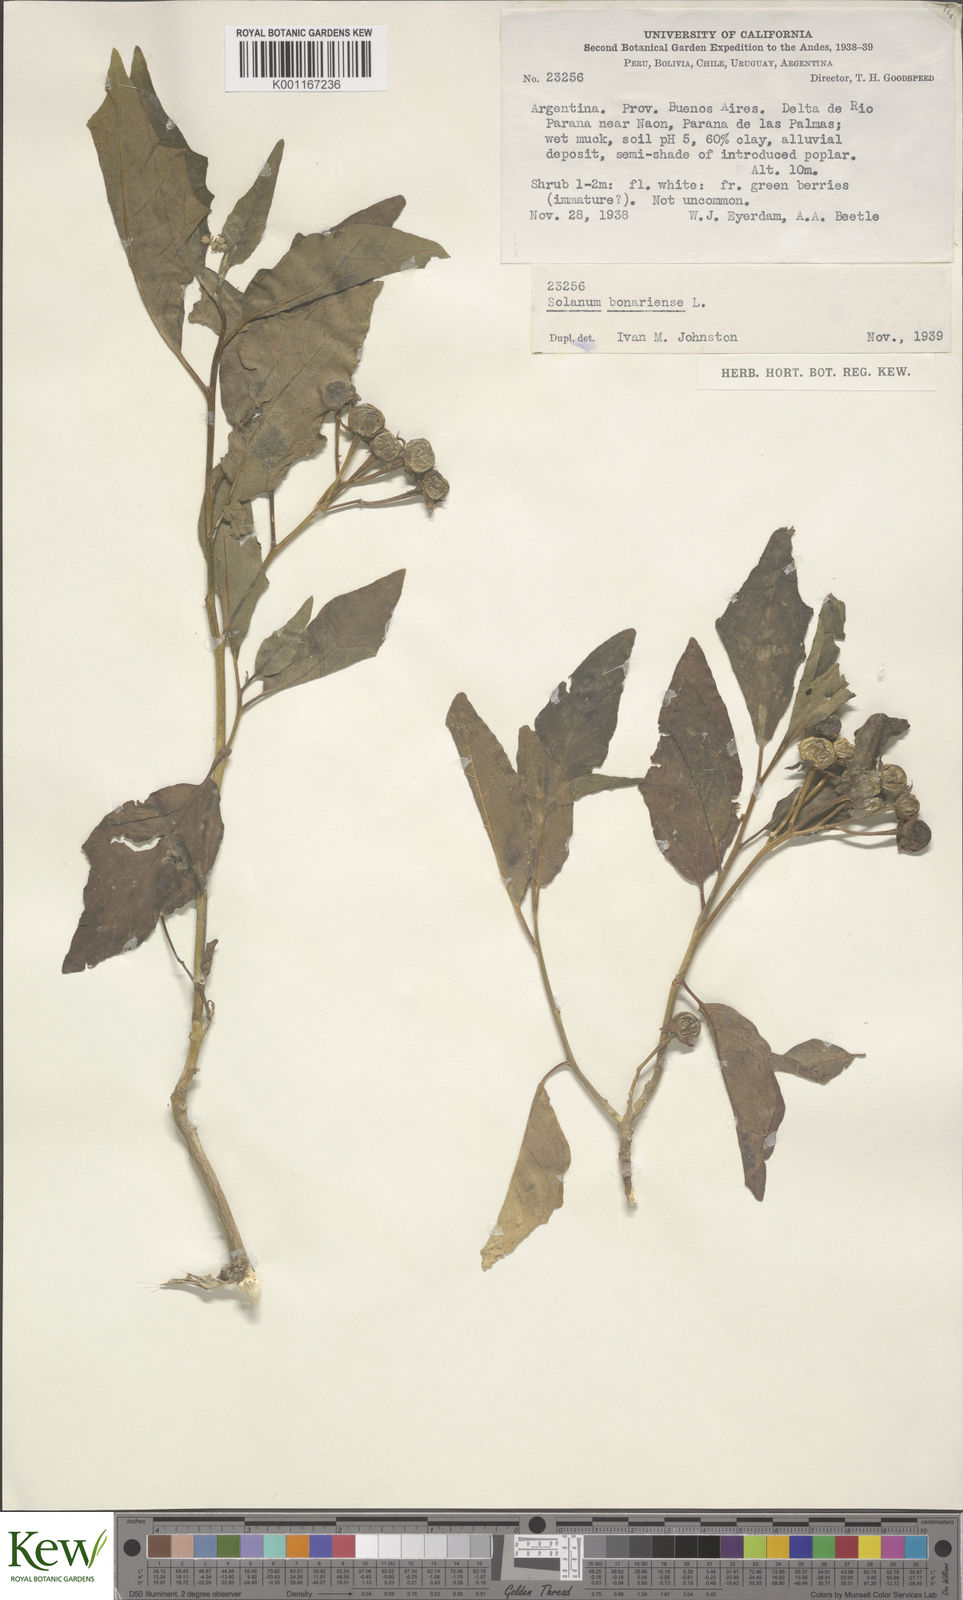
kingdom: Plantae
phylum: Tracheophyta
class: Magnoliopsida
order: Solanales
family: Solanaceae
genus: Solanum
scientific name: Solanum bonariense
